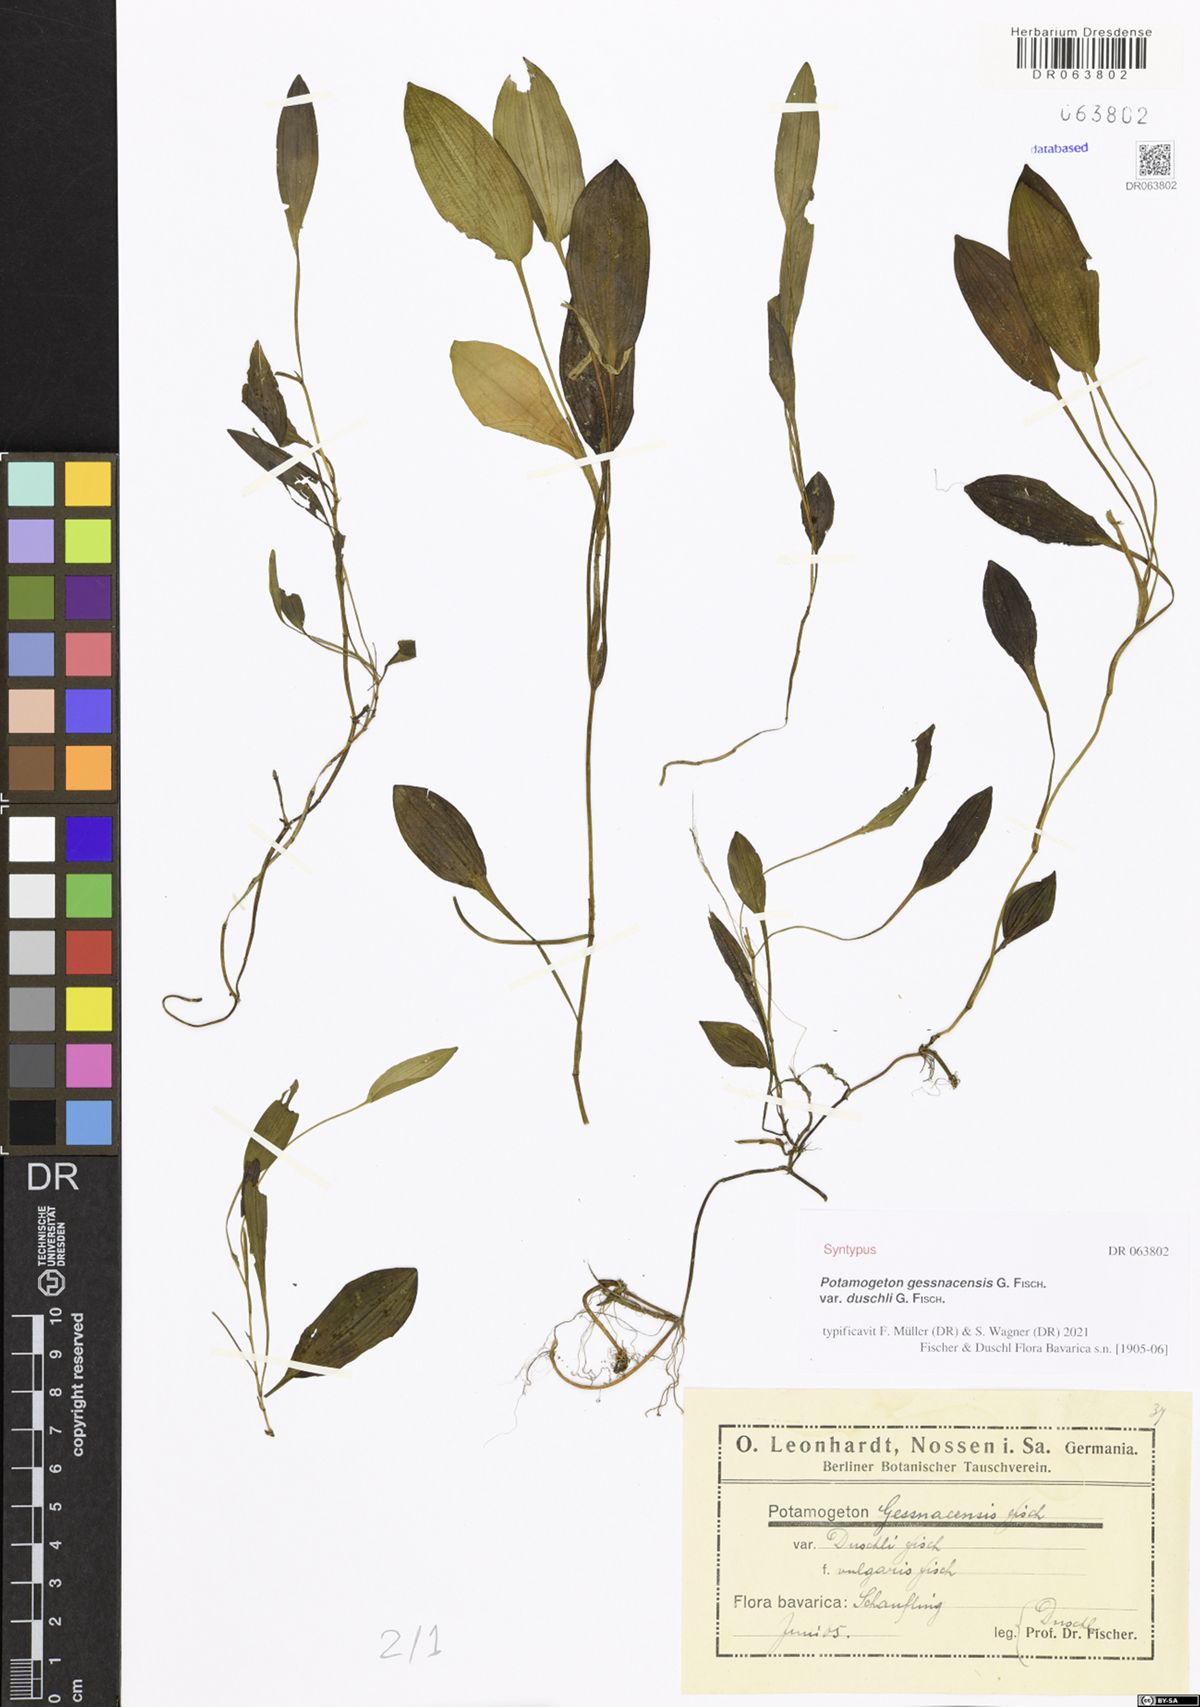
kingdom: Plantae
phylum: Tracheophyta
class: Liliopsida
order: Alismatales
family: Potamogetonaceae
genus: Potamogeton
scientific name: Potamogeton gessnacensis
